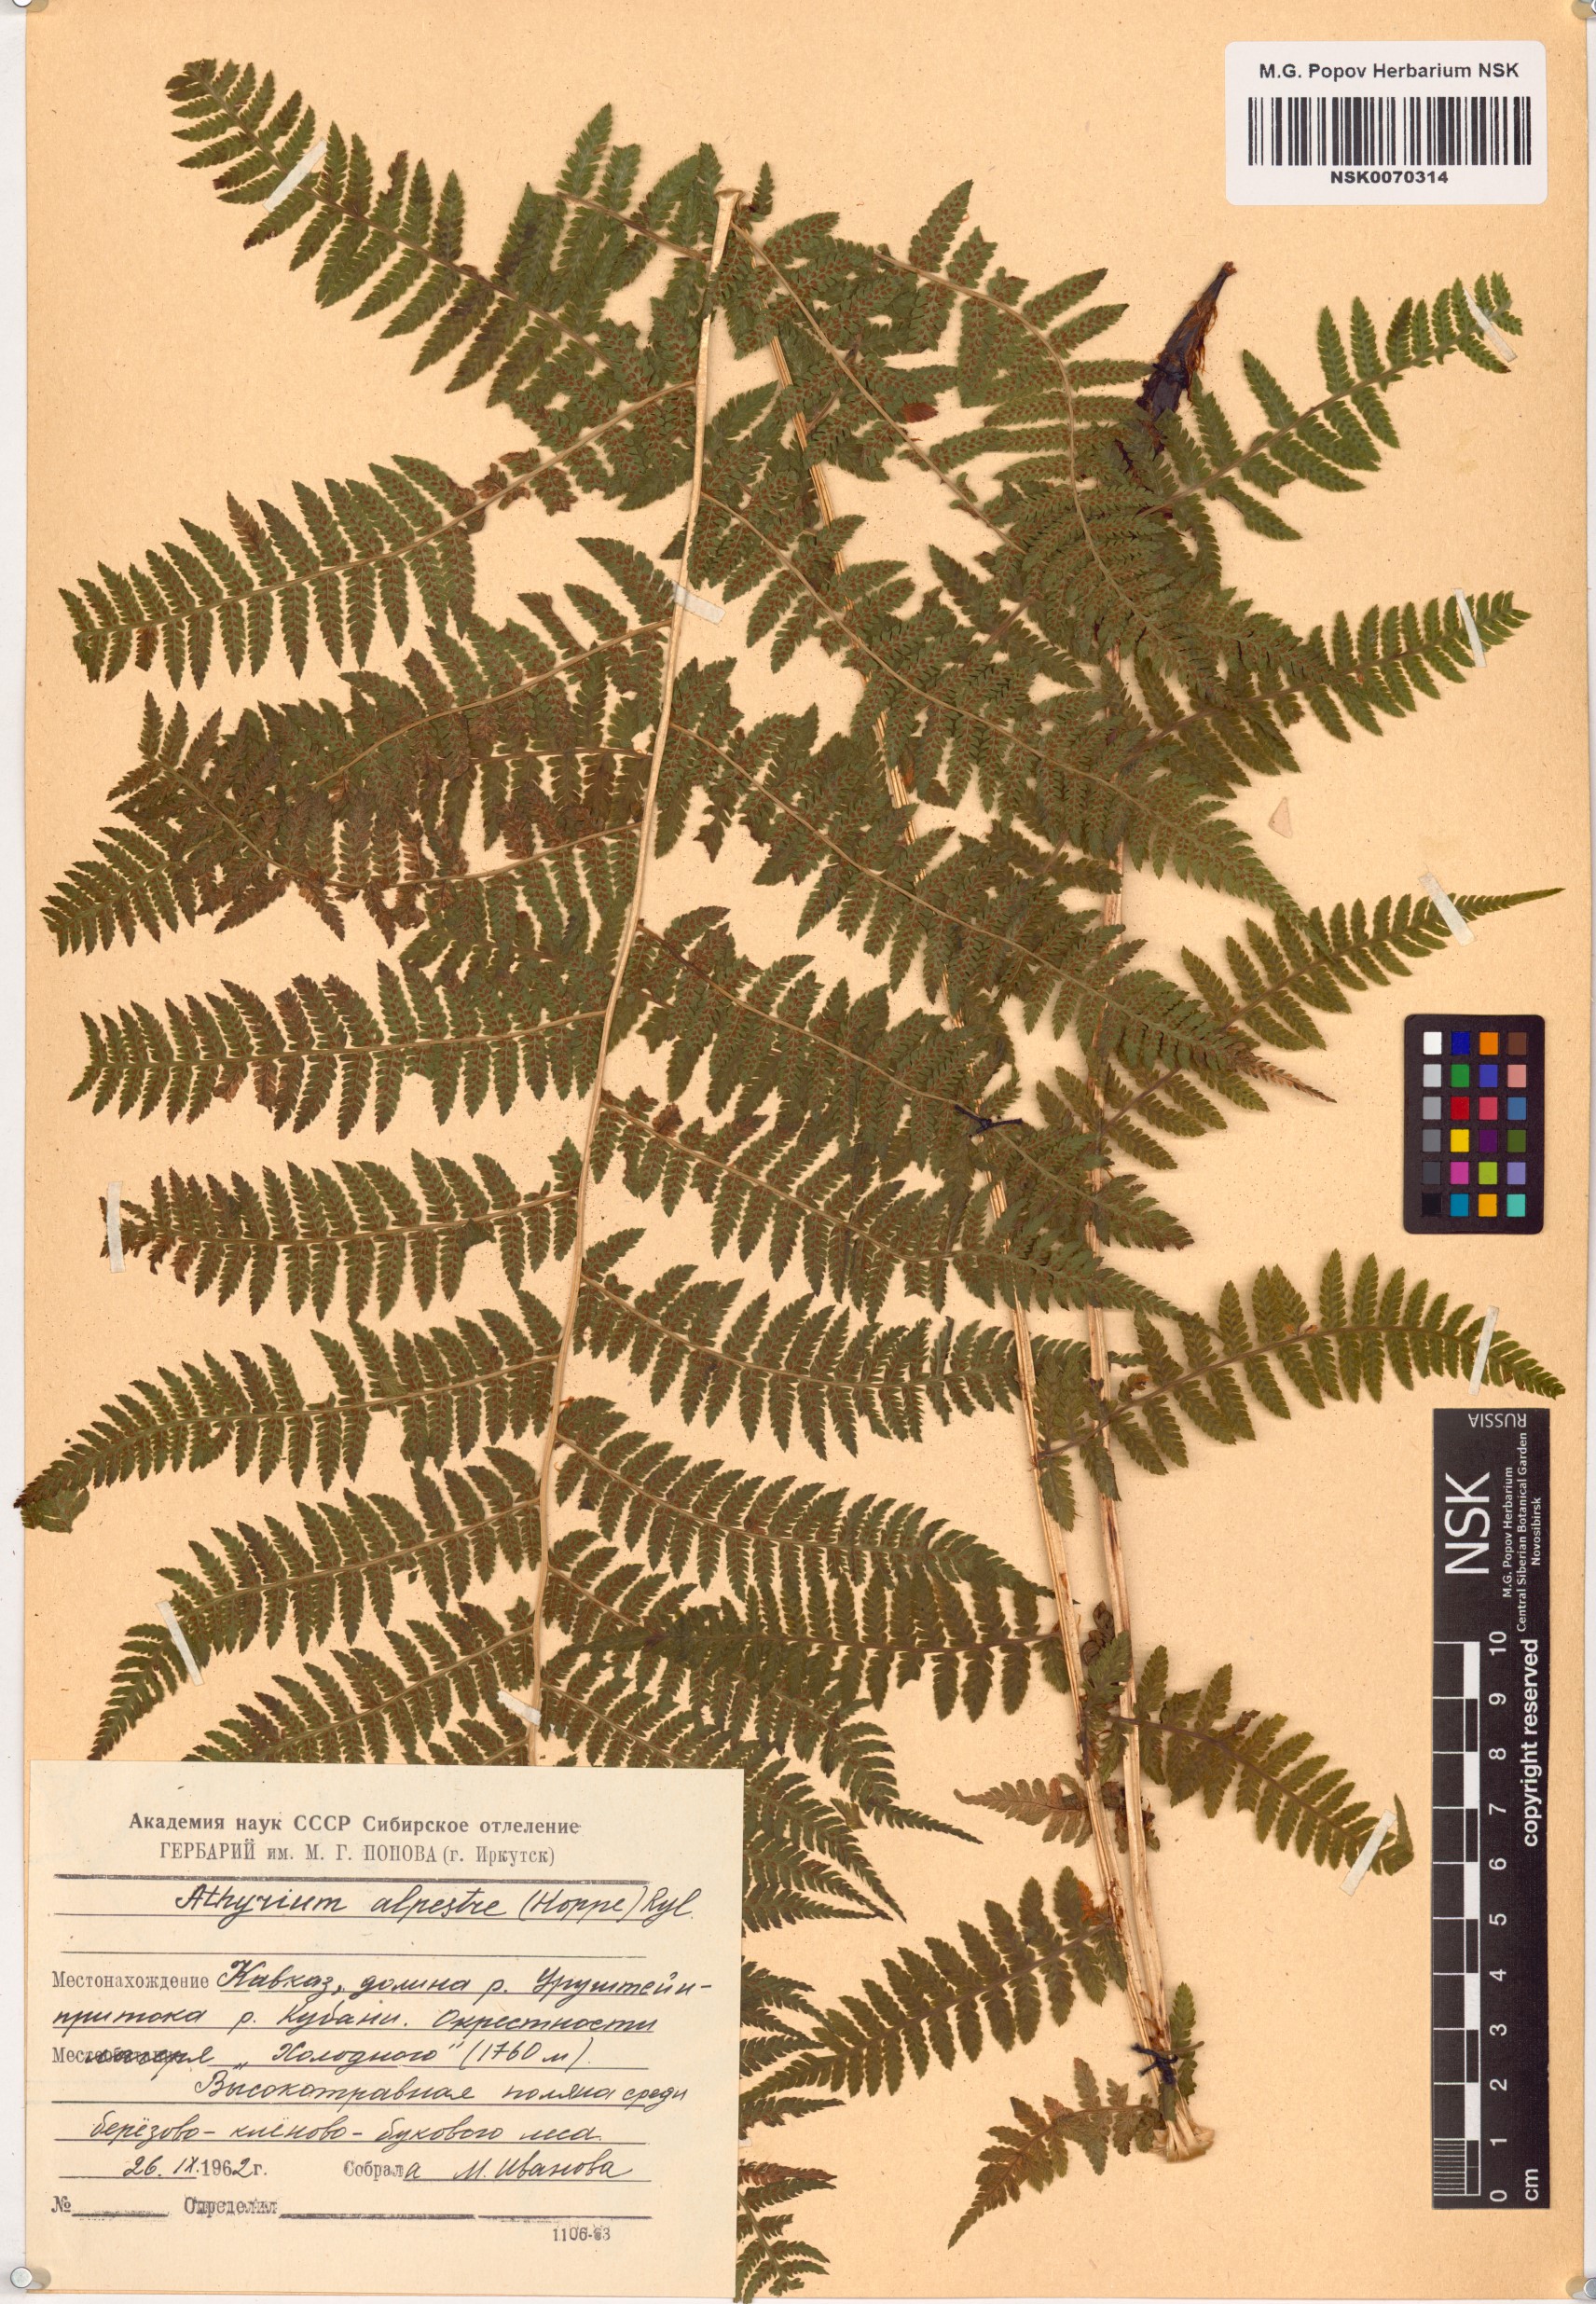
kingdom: Plantae
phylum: Tracheophyta
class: Polypodiopsida
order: Polypodiales
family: Athyriaceae
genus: Pseudathyrium
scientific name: Pseudathyrium alpestre
